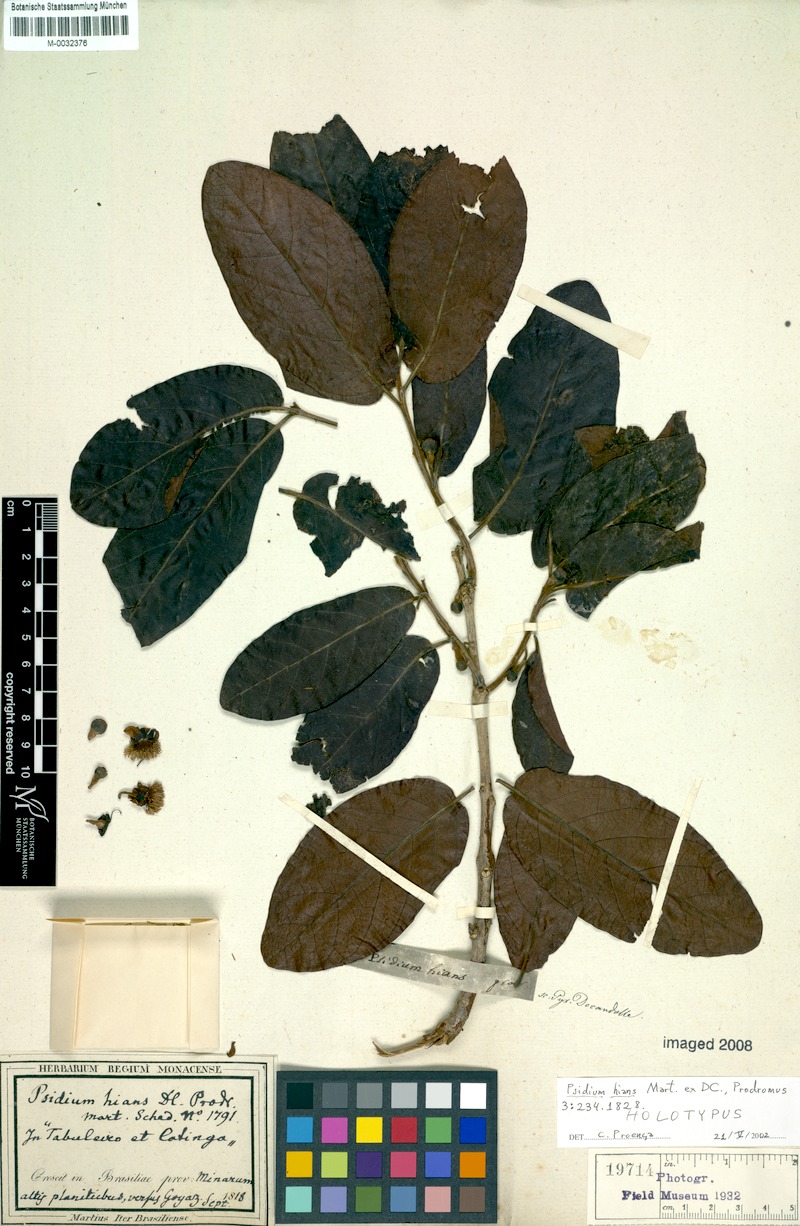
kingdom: Plantae
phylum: Tracheophyta
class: Magnoliopsida
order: Myrtales
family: Myrtaceae
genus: Campomanesia
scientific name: Campomanesia pubescens
